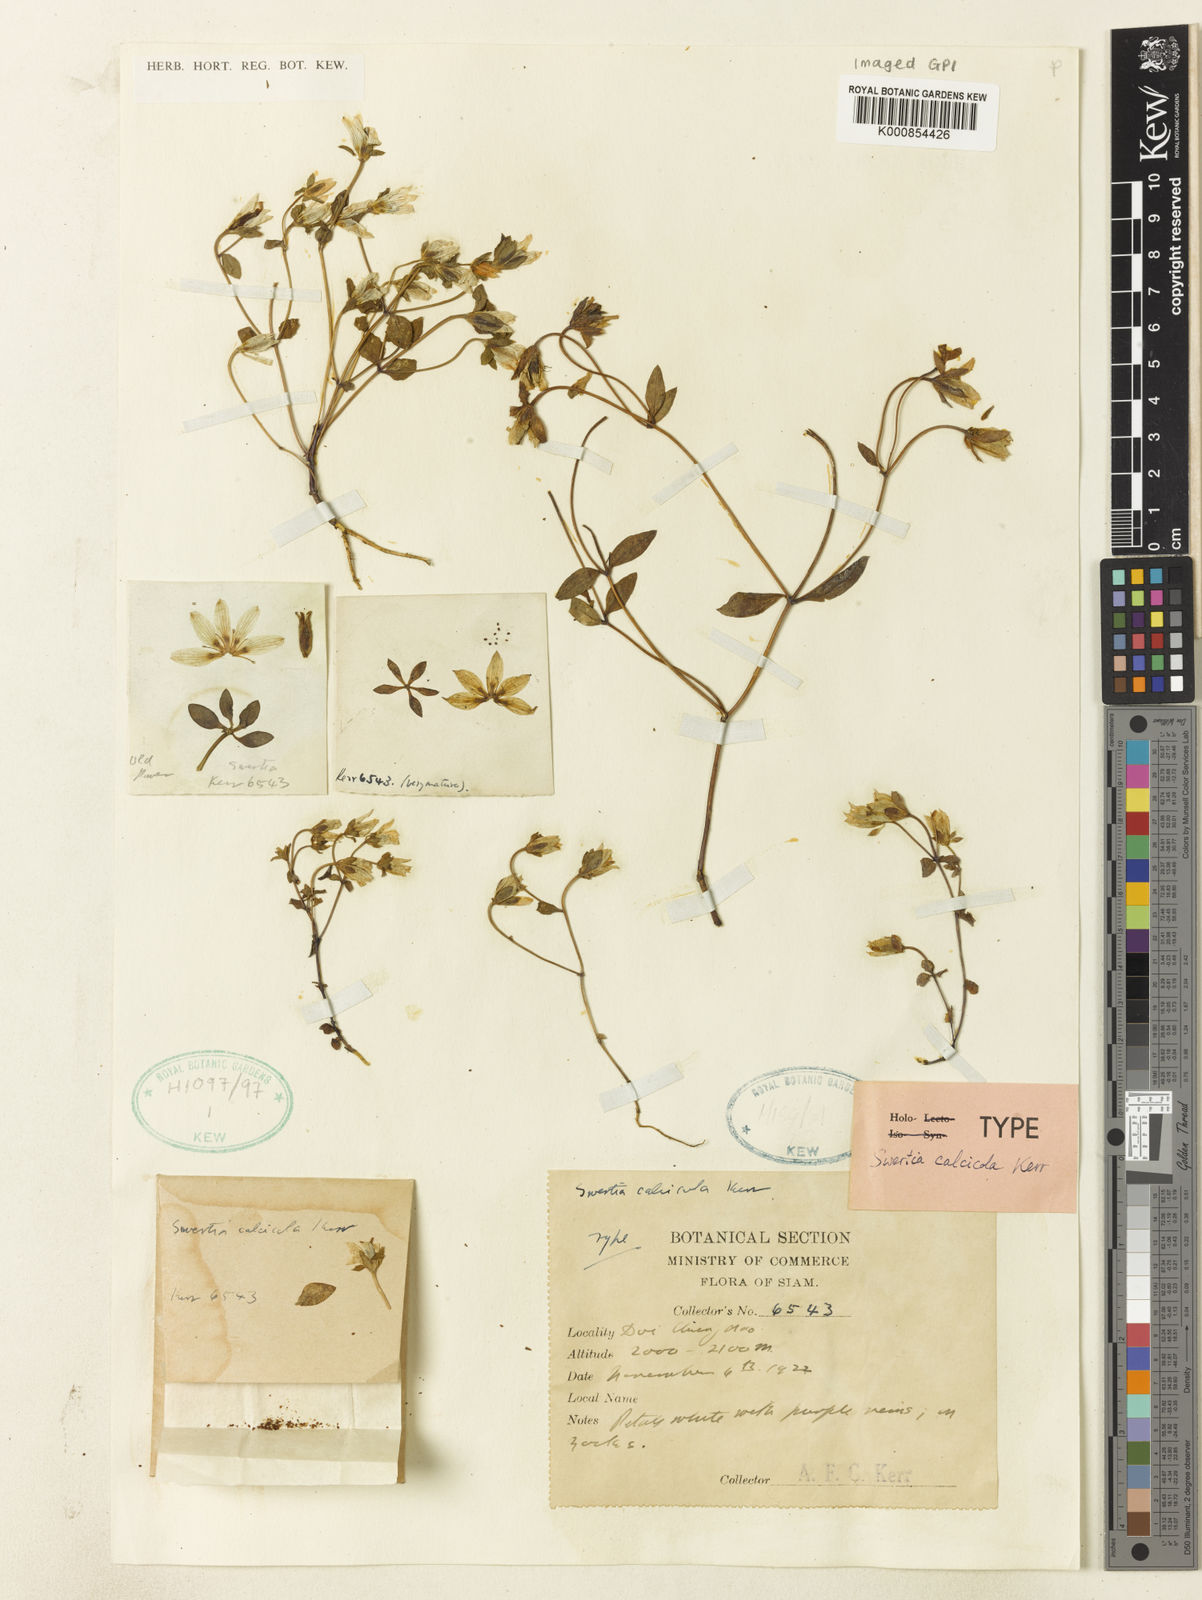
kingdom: Plantae
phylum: Tracheophyta
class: Magnoliopsida
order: Gentianales
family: Gentianaceae
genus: Swertia
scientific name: Swertia calcicola
